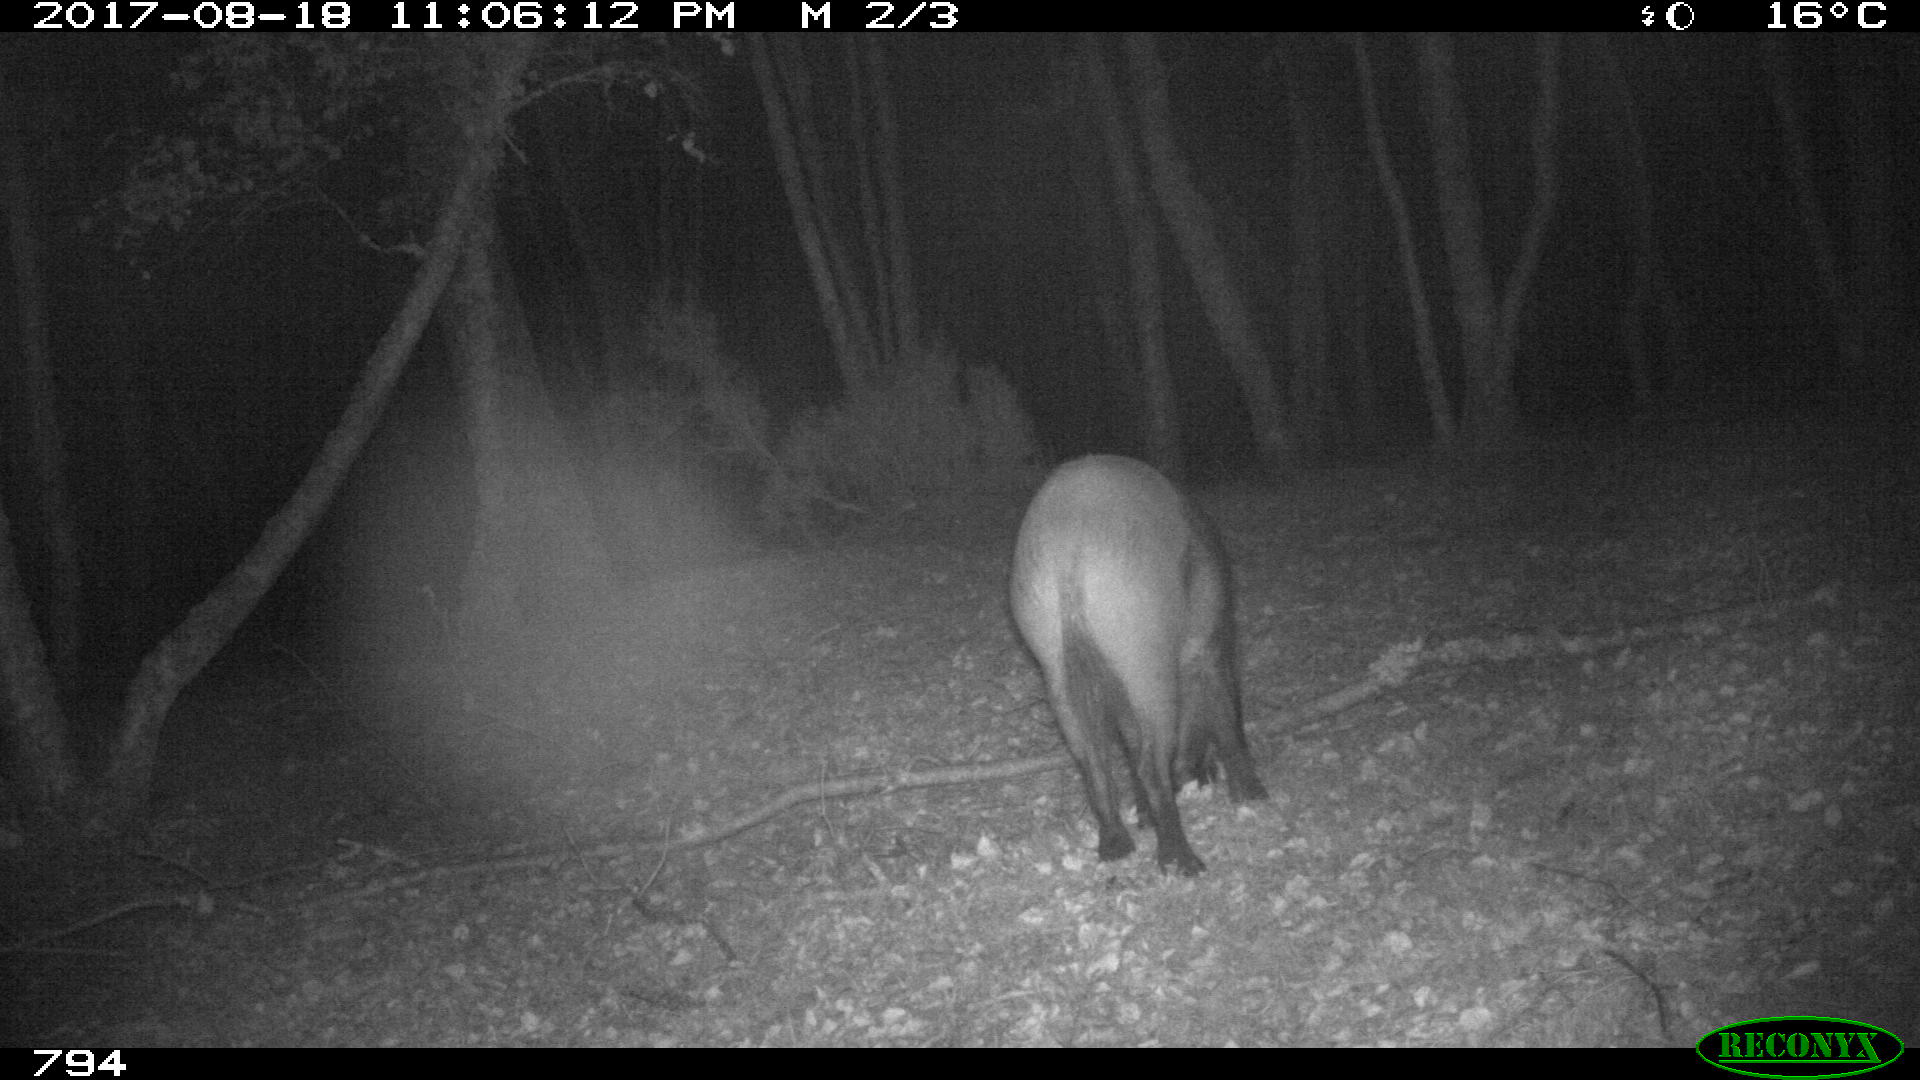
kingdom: Animalia
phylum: Chordata
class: Mammalia
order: Artiodactyla
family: Suidae
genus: Sus
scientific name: Sus scrofa
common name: Wild boar
